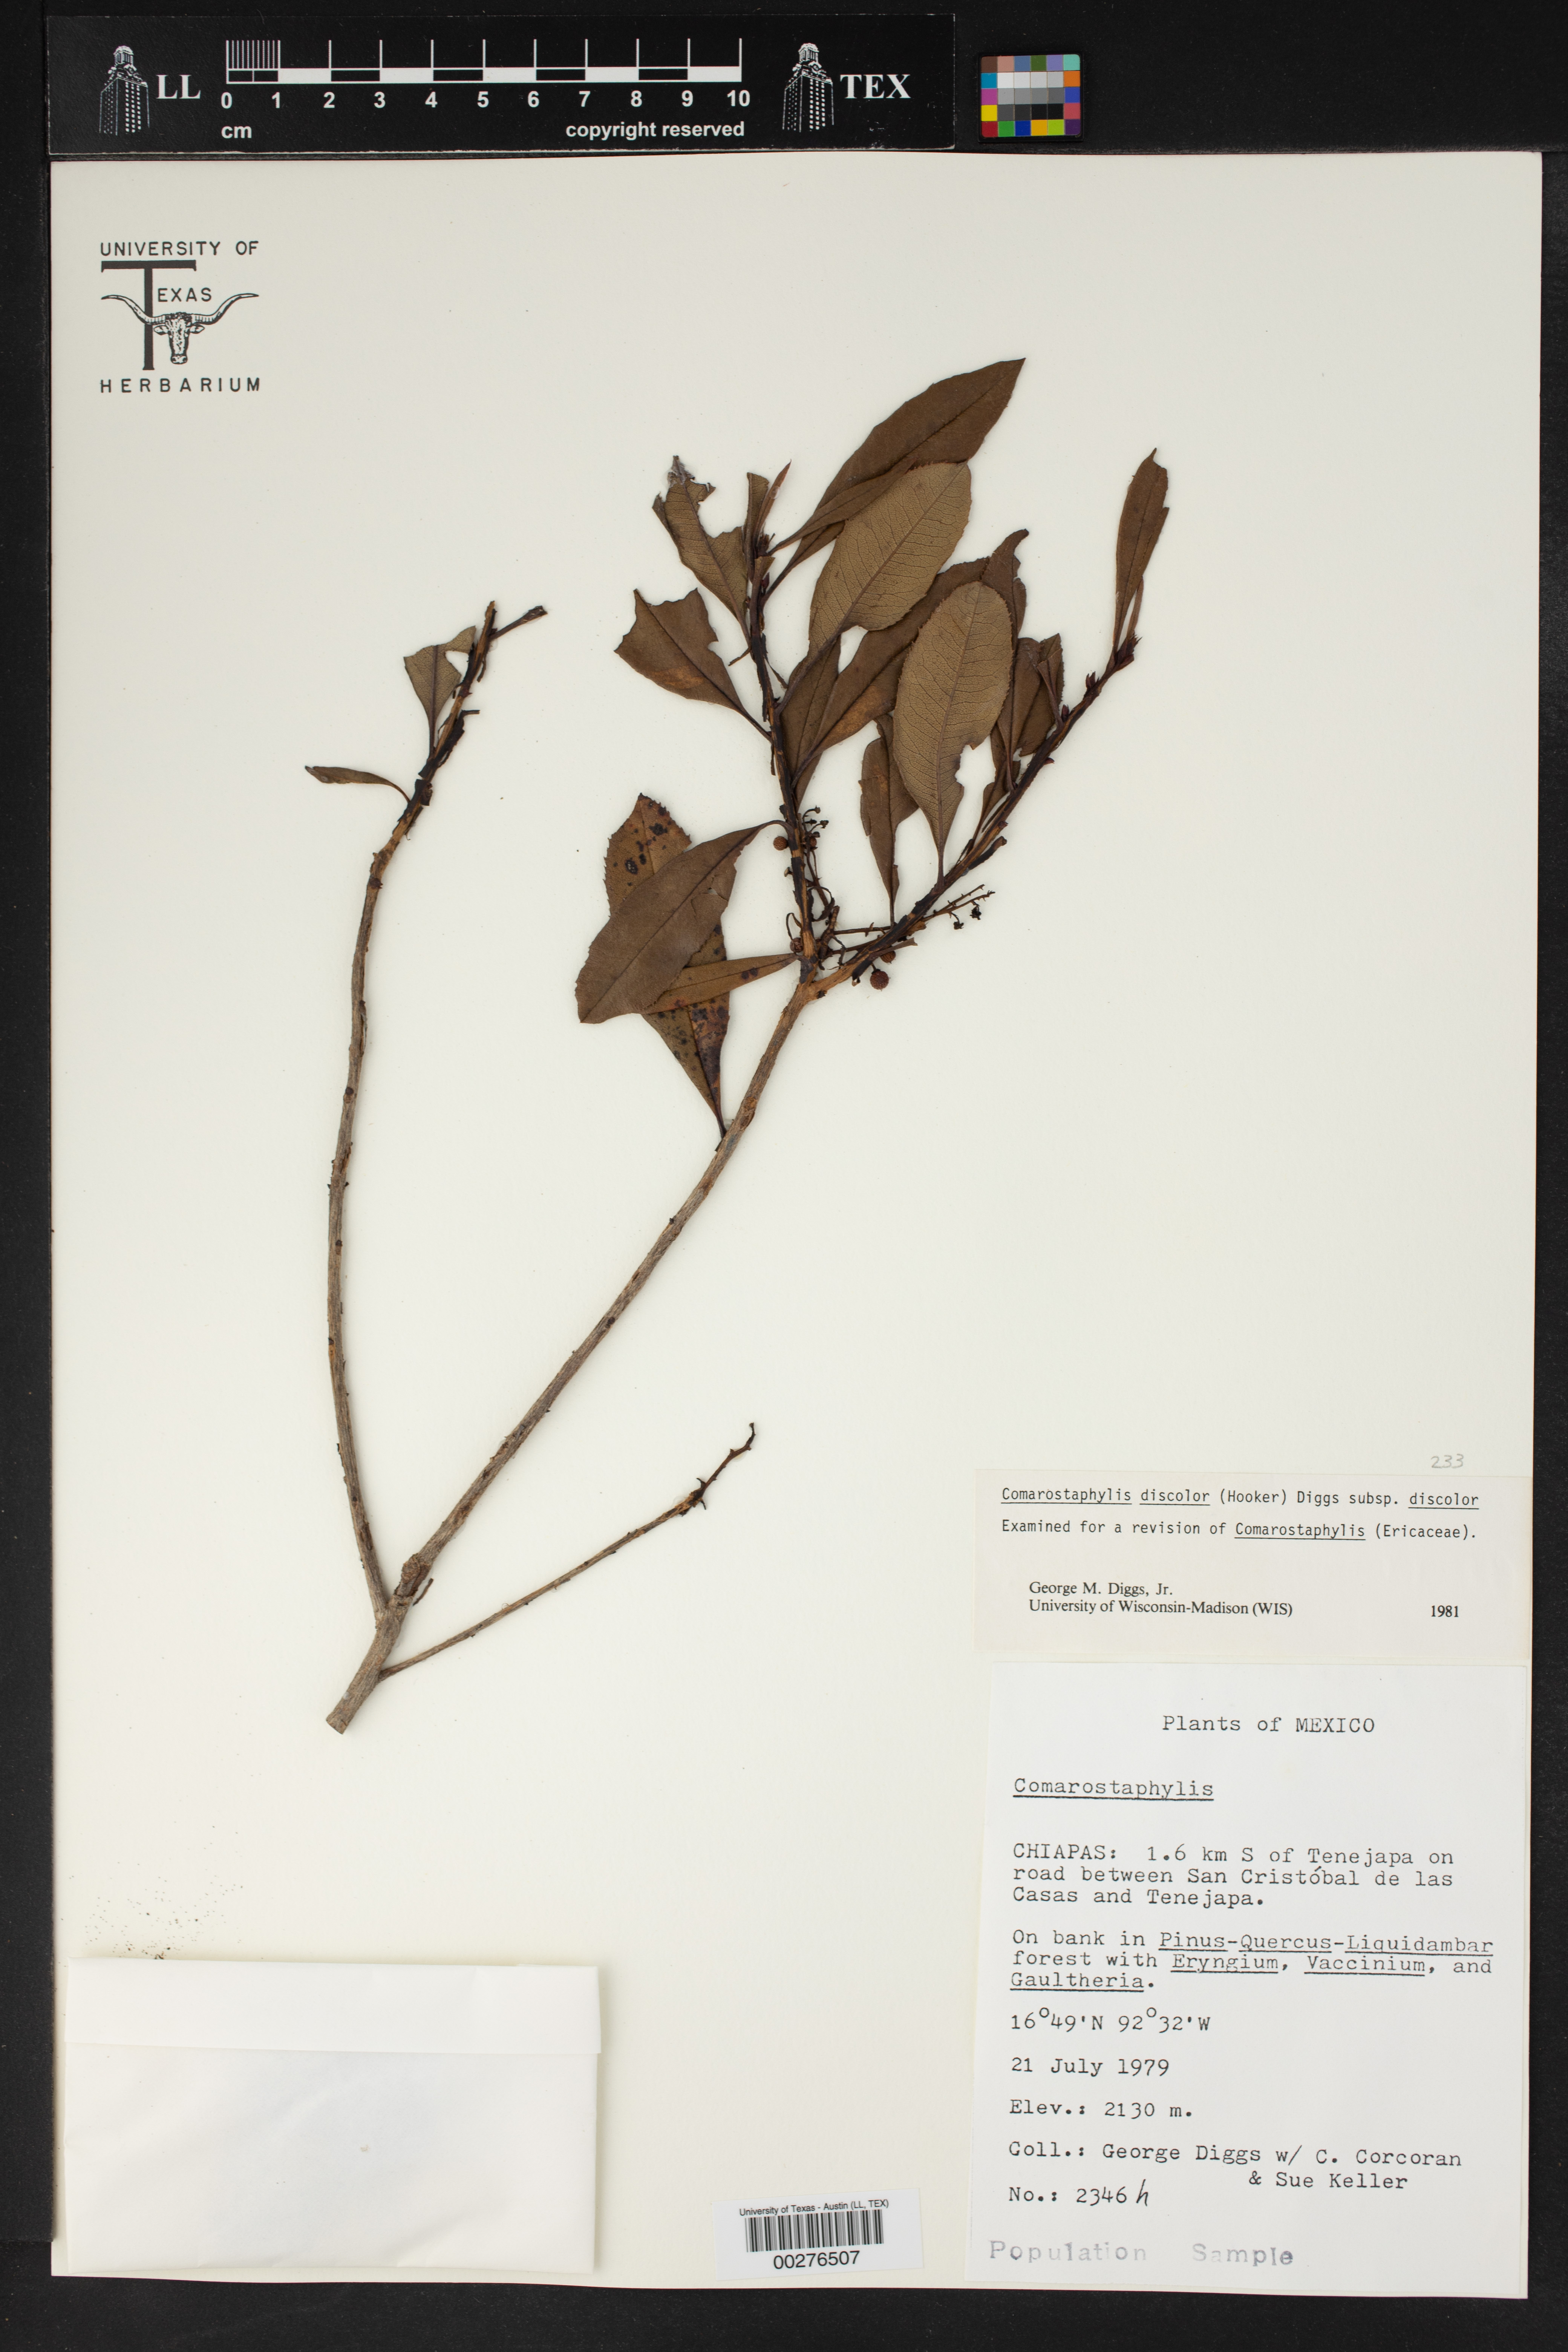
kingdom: Plantae
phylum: Tracheophyta
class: Magnoliopsida
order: Ericales
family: Ericaceae
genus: Comarostaphylis
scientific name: Comarostaphylis discolor
